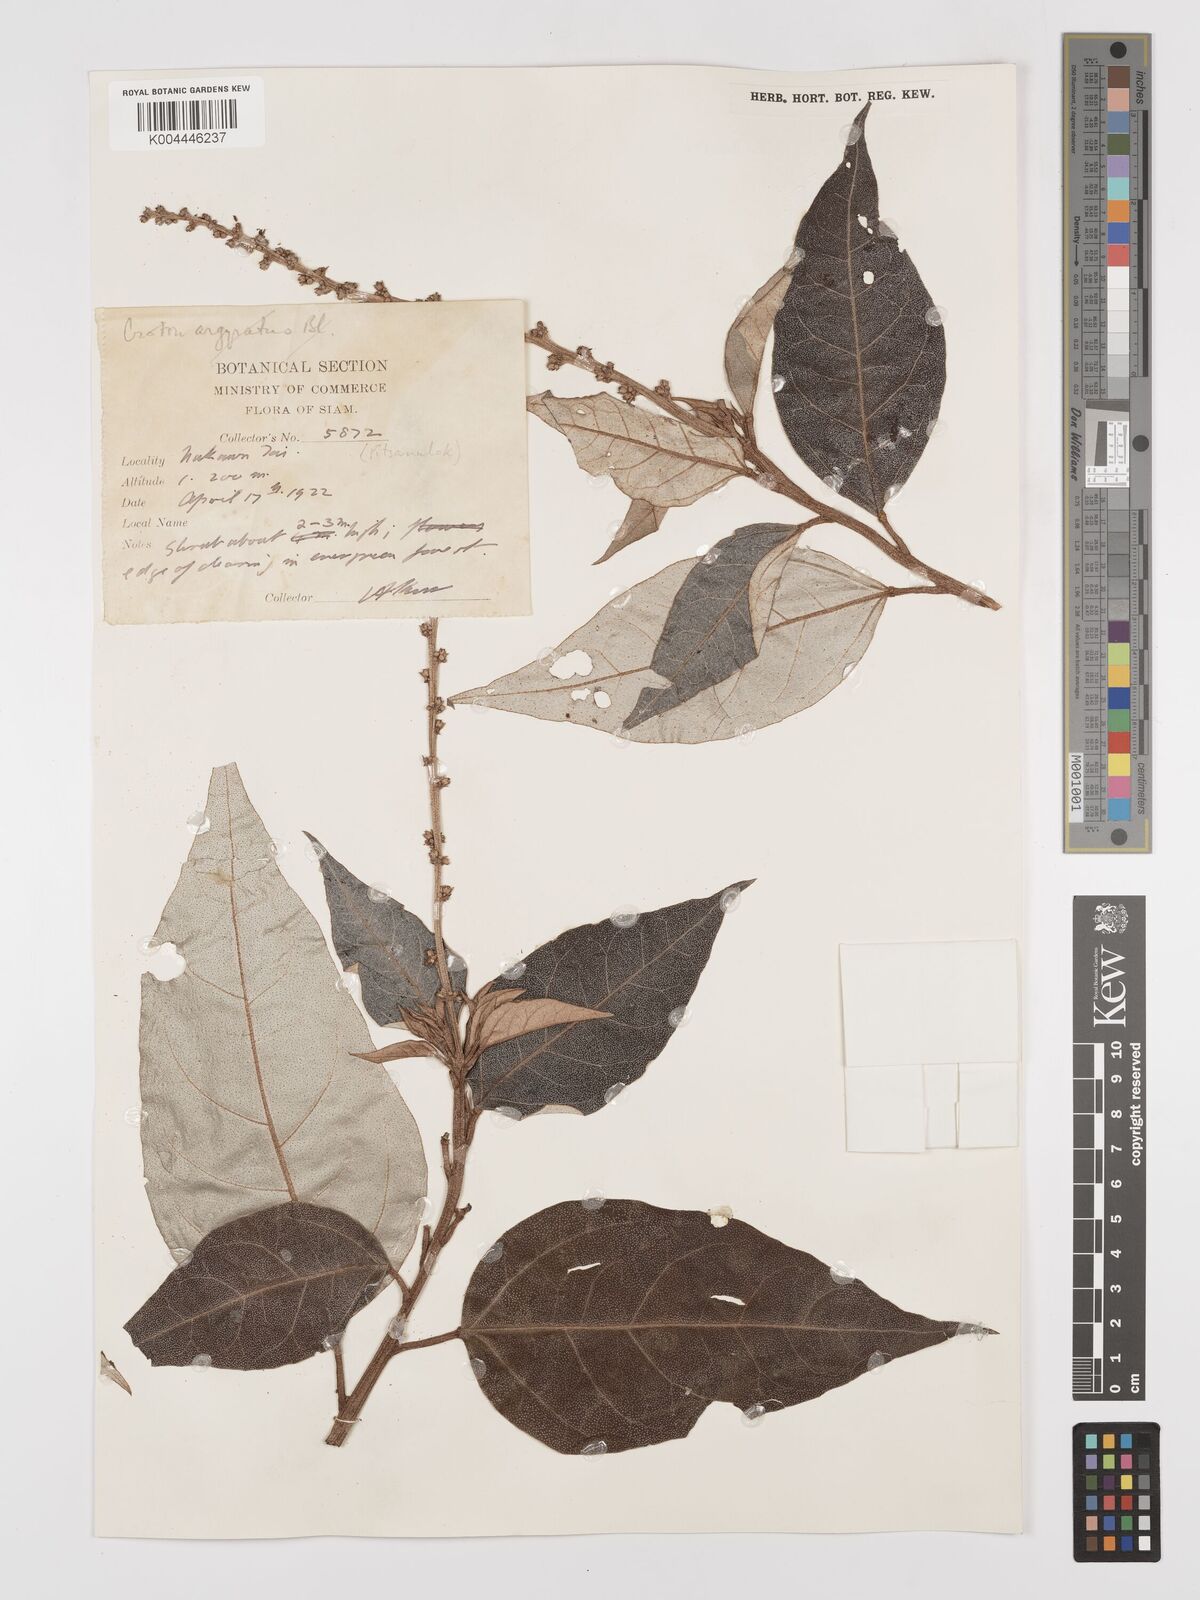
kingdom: Plantae
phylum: Tracheophyta
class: Magnoliopsida
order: Malpighiales
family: Euphorbiaceae
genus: Croton
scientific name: Croton kongensis
